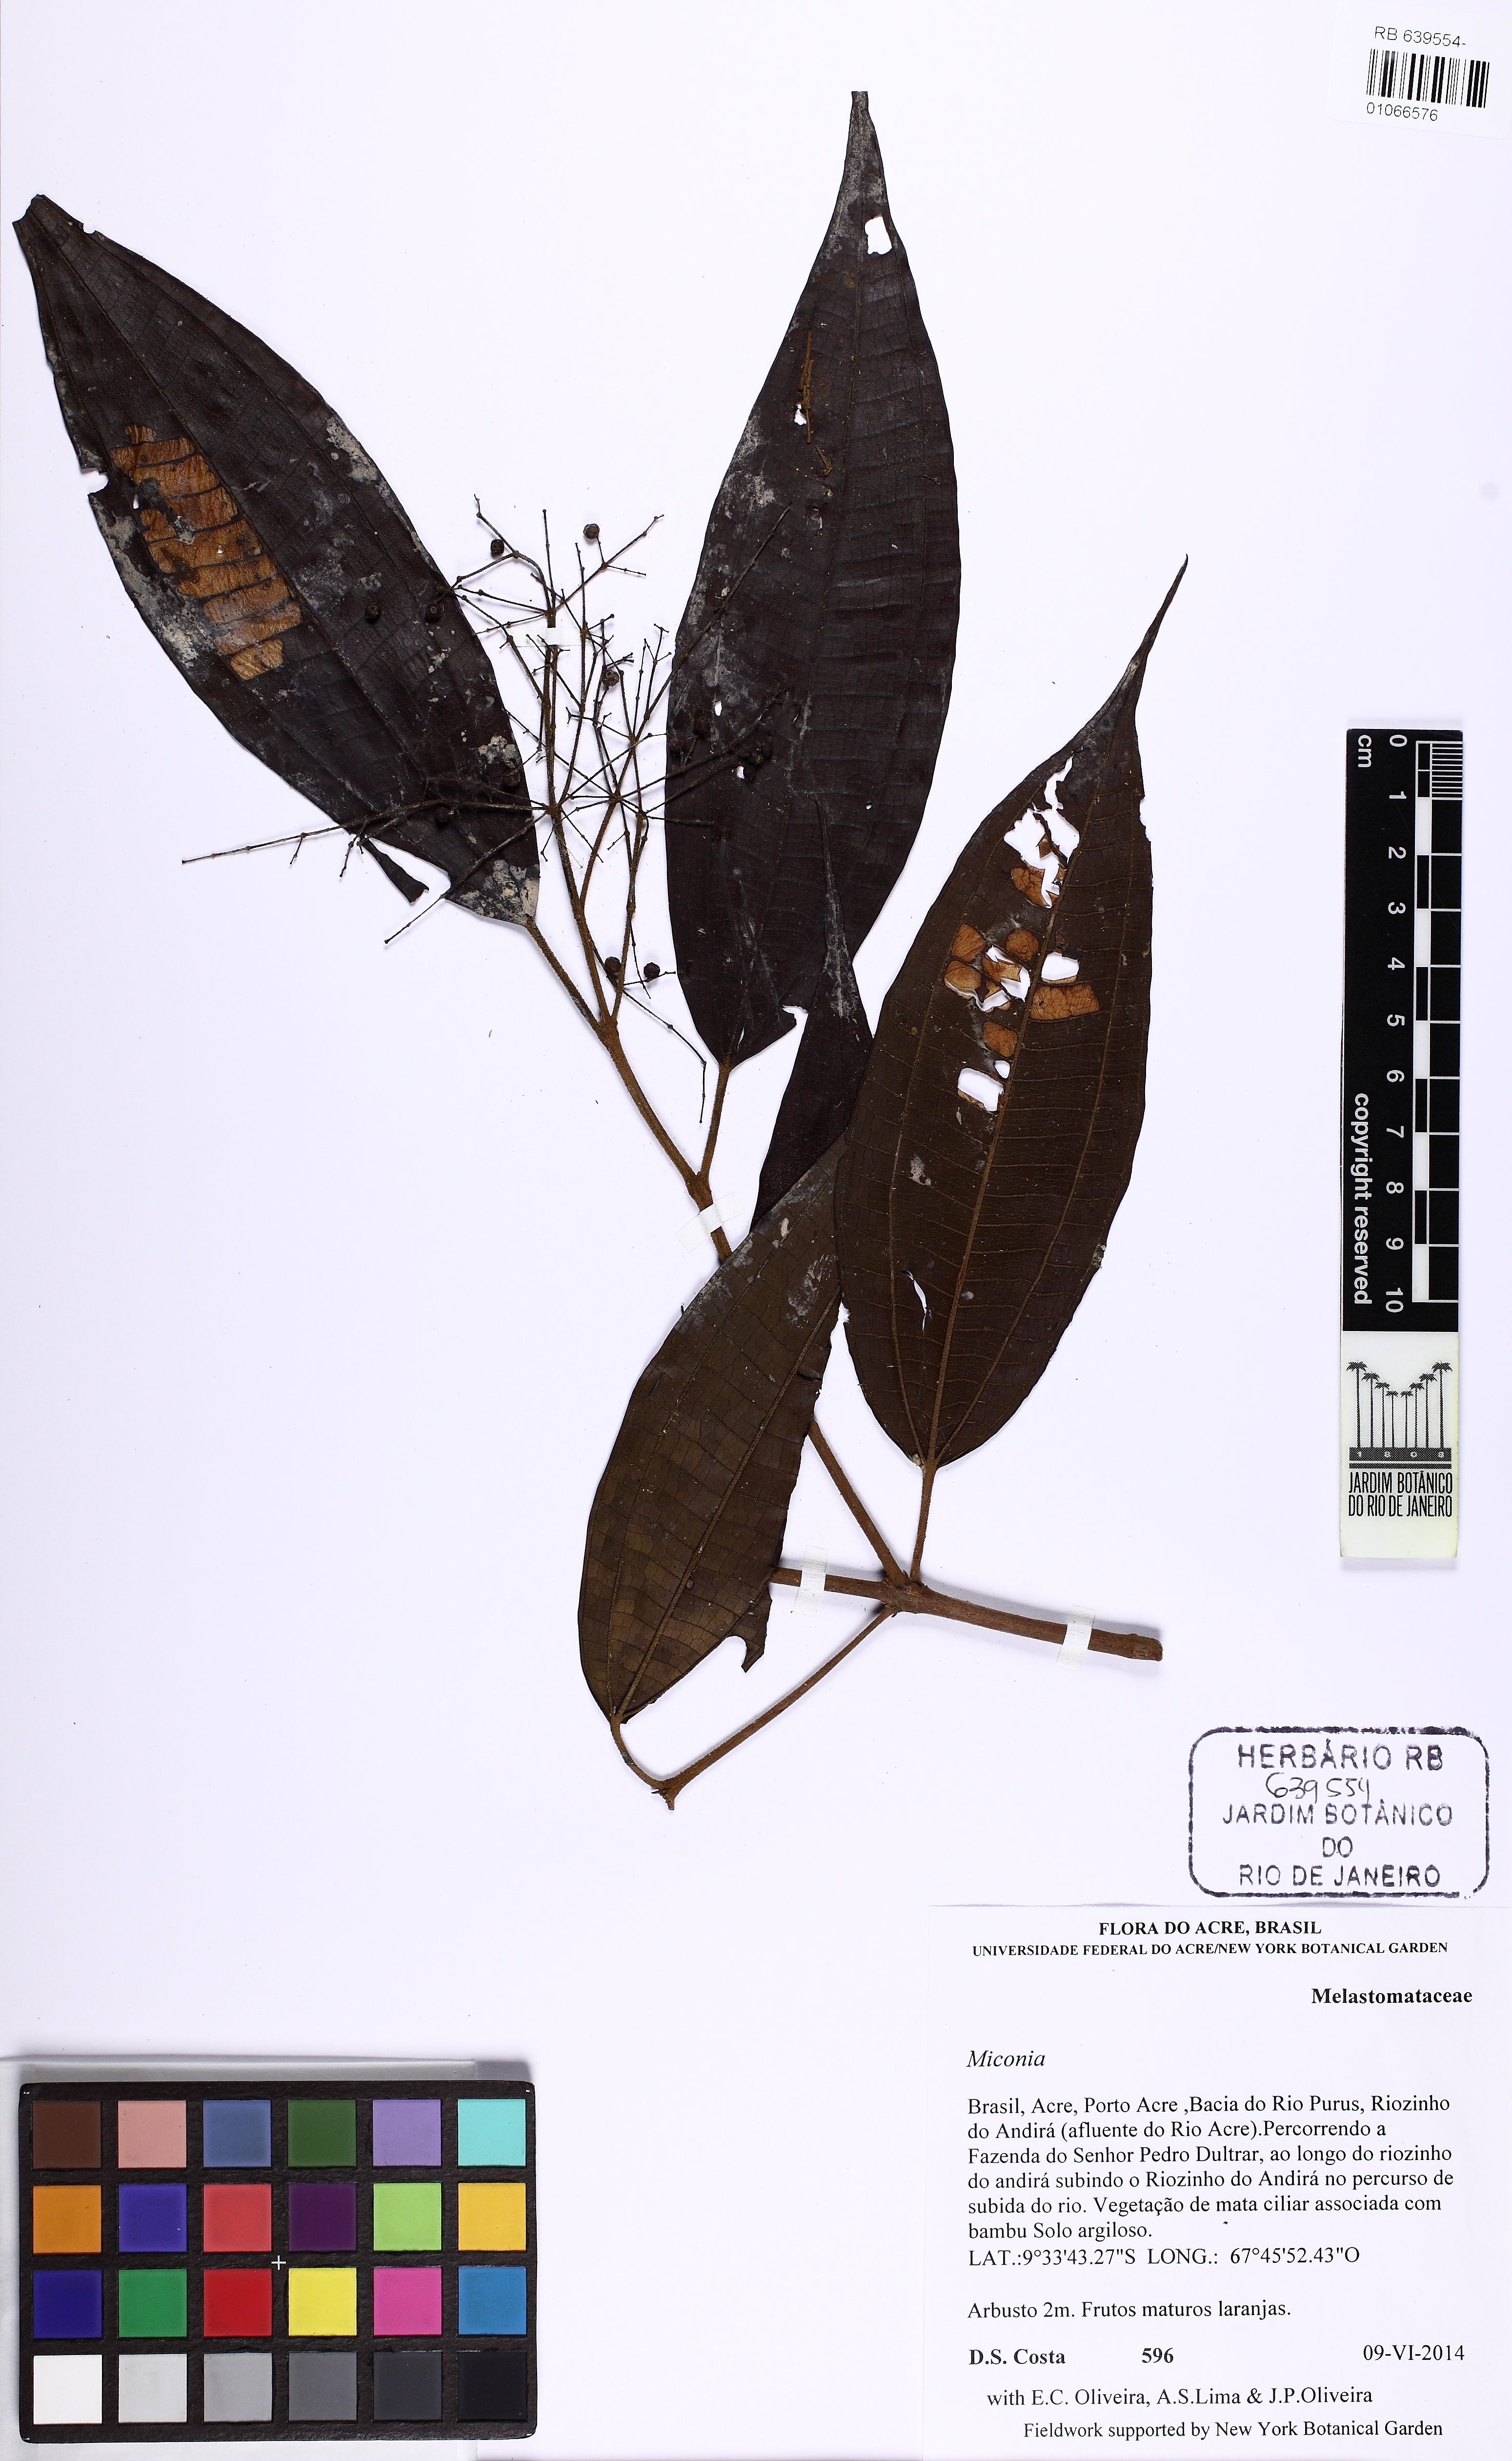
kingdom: Plantae
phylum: Tracheophyta
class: Magnoliopsida
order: Myrtales
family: Melastomataceae
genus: Miconia
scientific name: Miconia
